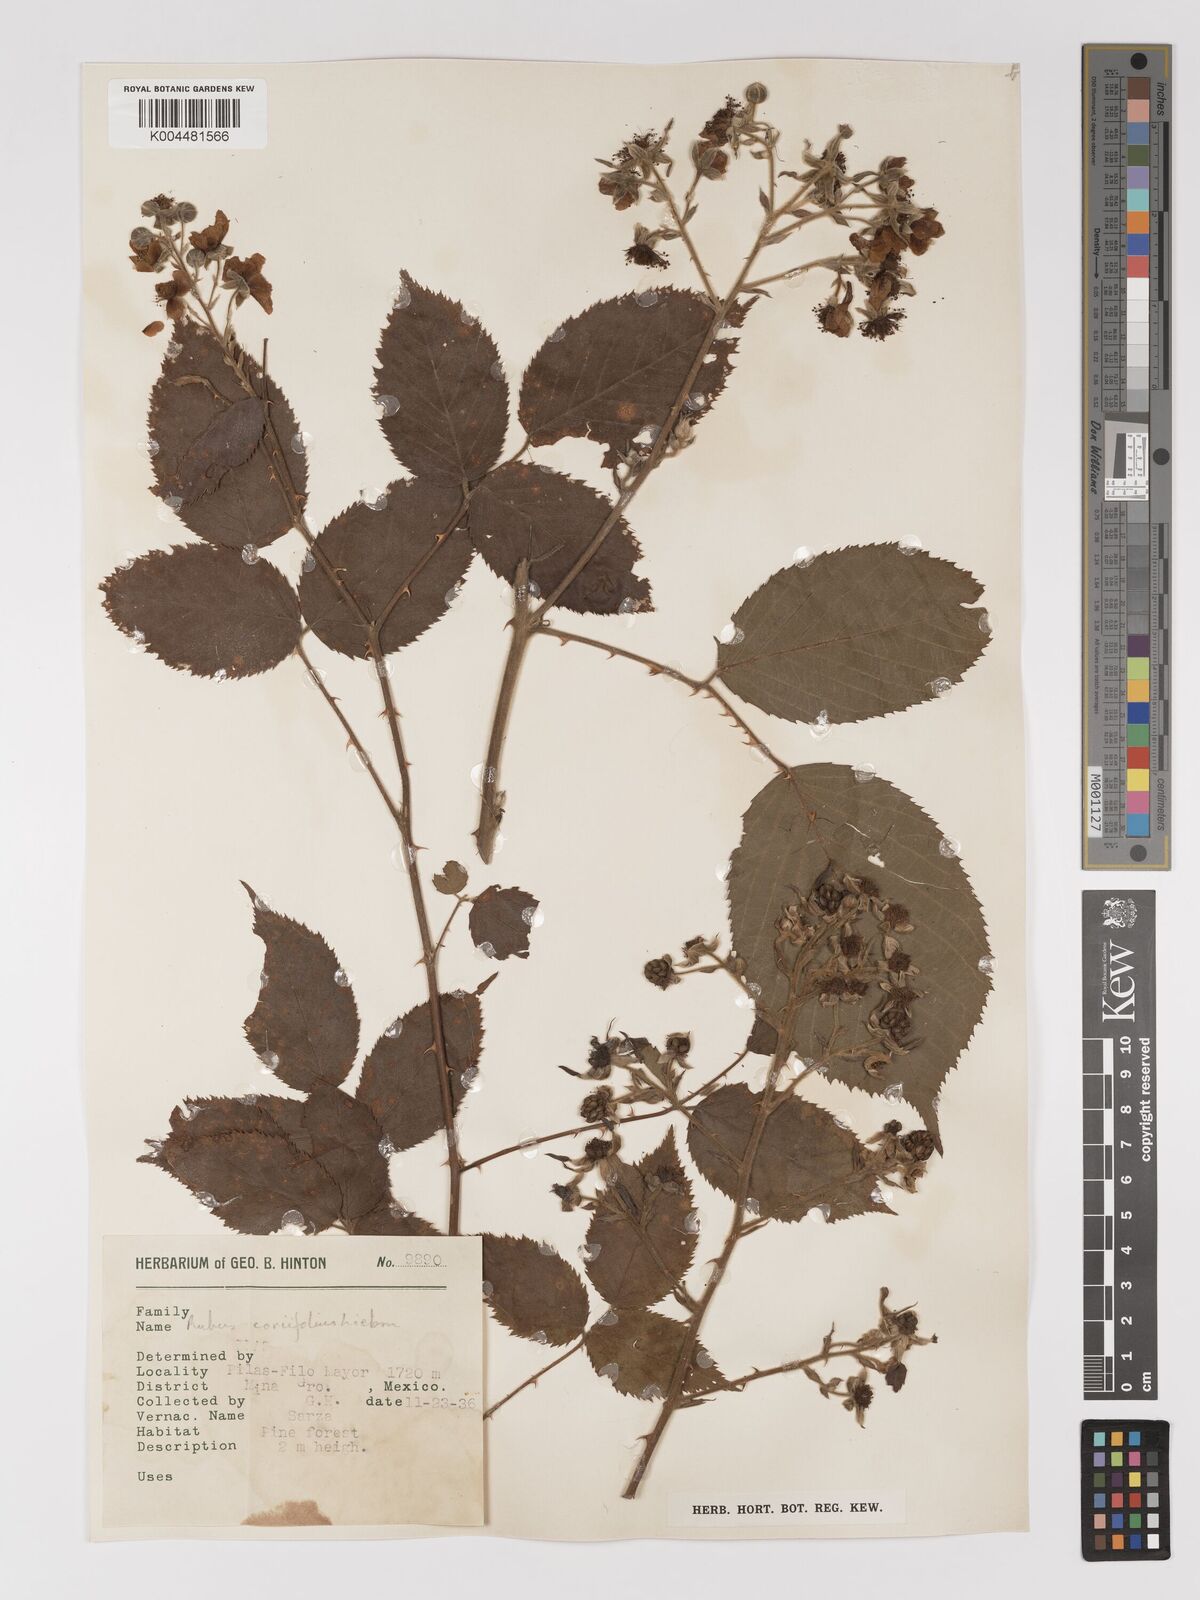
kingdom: Plantae
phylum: Tracheophyta
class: Magnoliopsida
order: Rosales
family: Rosaceae
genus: Rubus
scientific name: Rubus coriifolius
